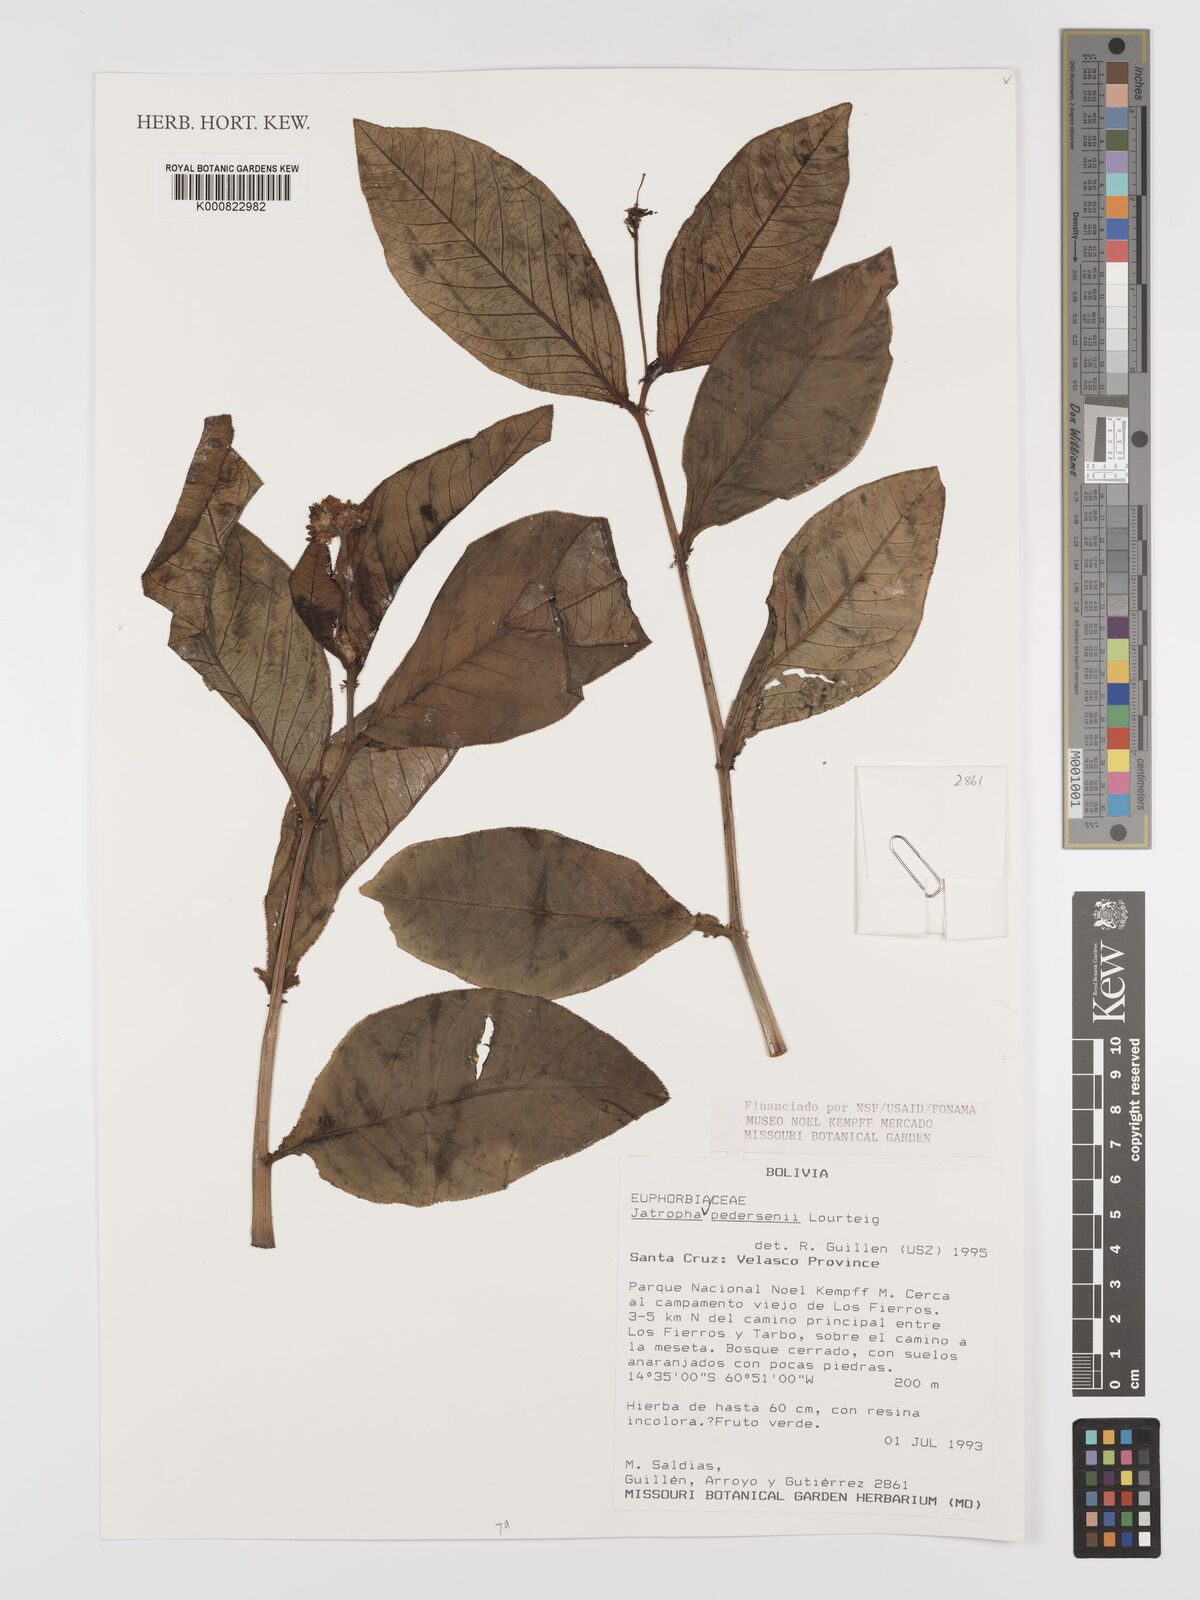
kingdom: Plantae
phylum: Tracheophyta
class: Magnoliopsida
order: Malpighiales
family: Euphorbiaceae
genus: Jatropha
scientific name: Jatropha pedersenii
